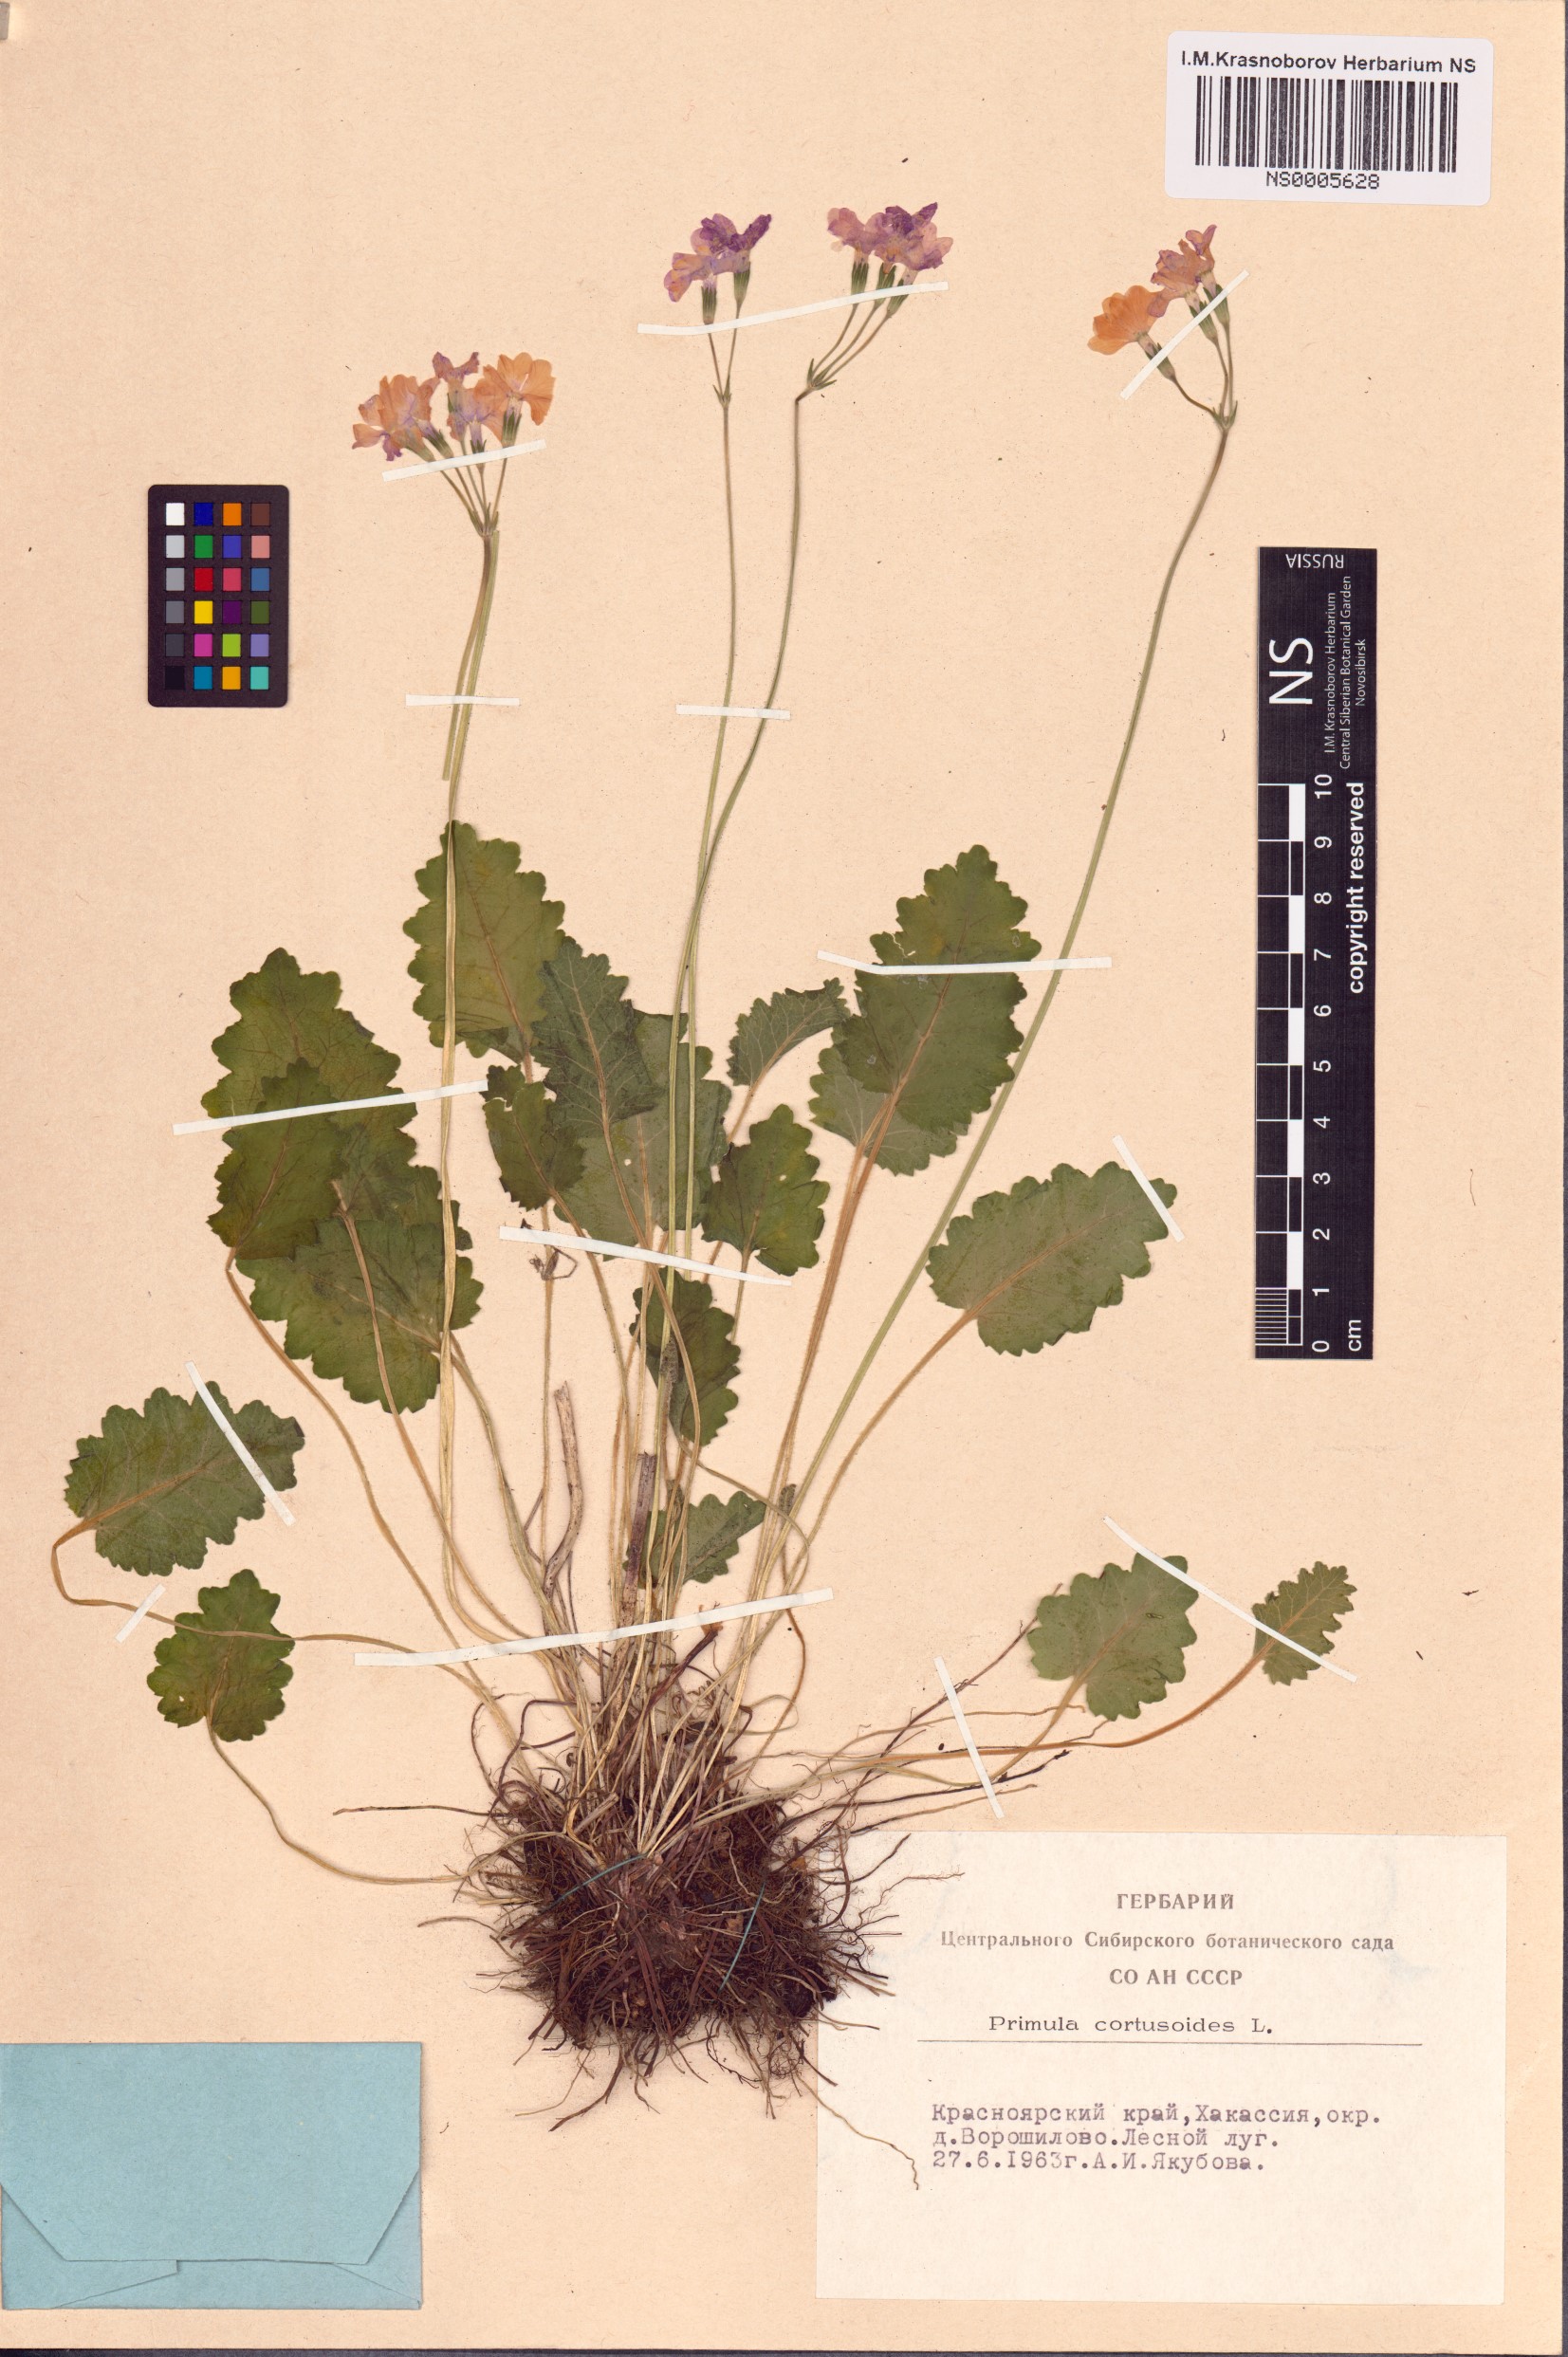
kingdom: Plantae
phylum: Tracheophyta
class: Magnoliopsida
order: Ericales
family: Primulaceae
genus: Primula
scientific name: Primula cortusoides
